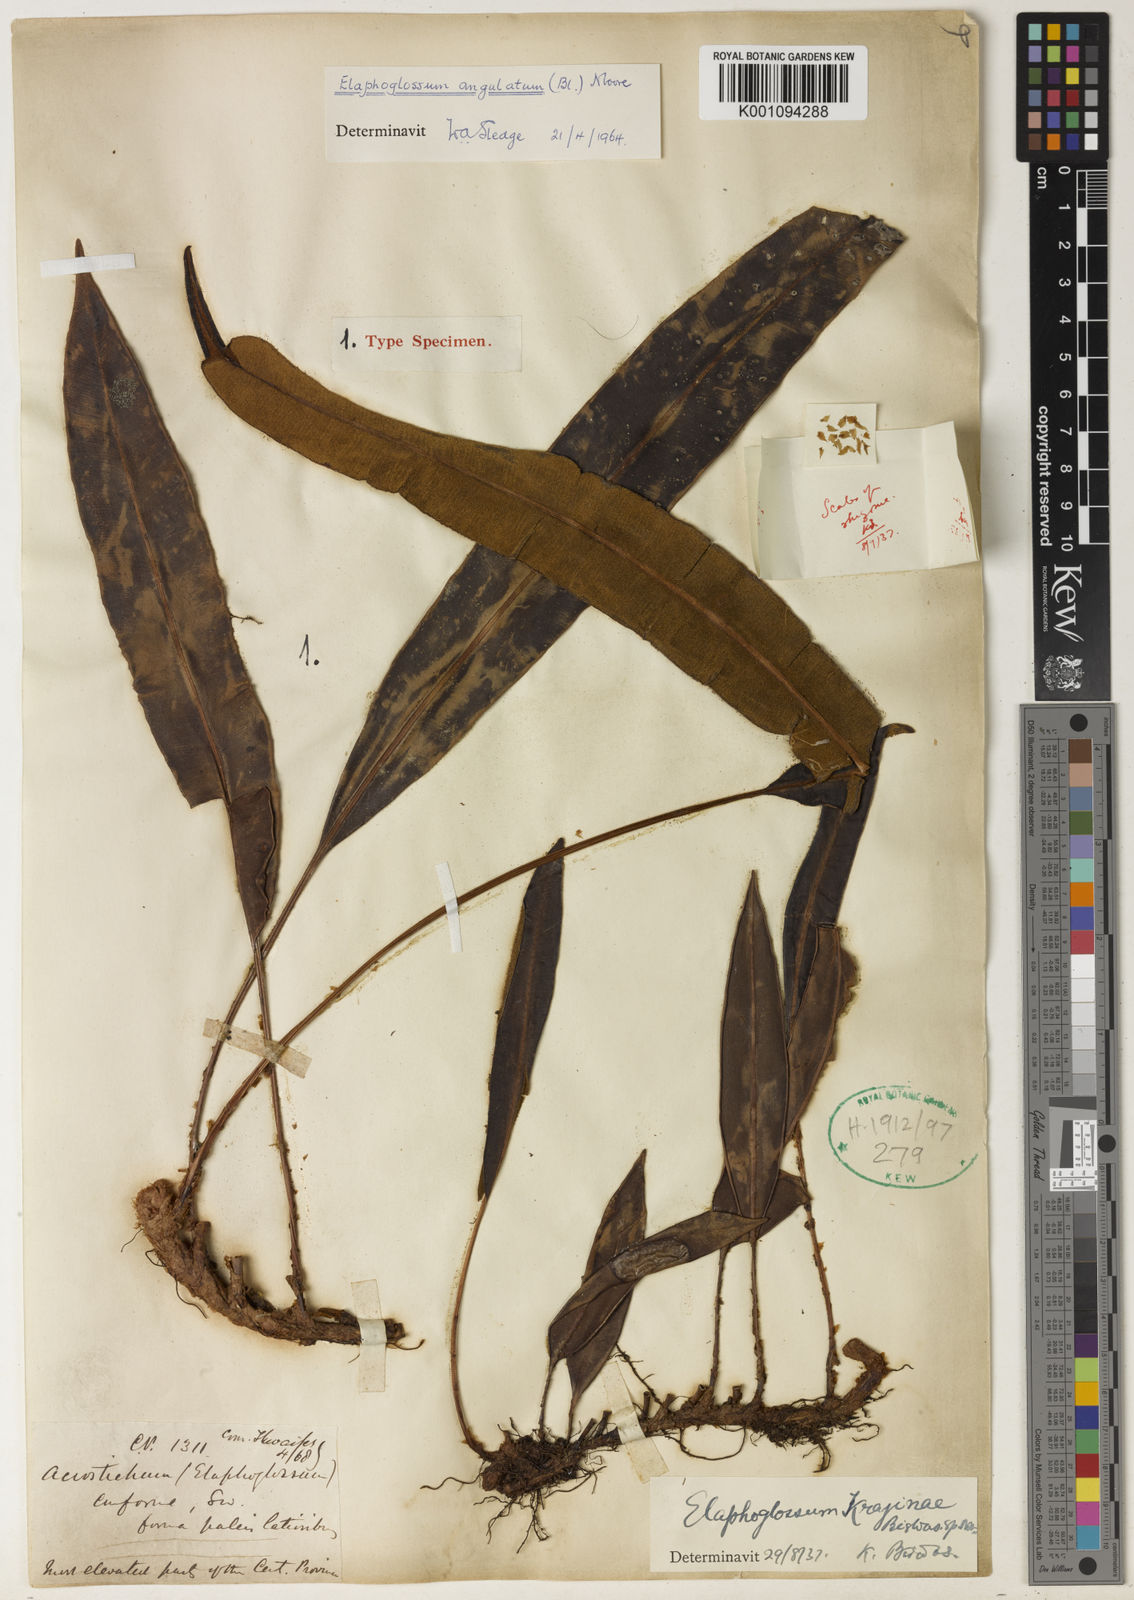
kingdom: Plantae
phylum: Tracheophyta
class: Polypodiopsida
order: Polypodiales
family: Dryopteridaceae
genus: Elaphoglossum
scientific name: Elaphoglossum angulatum
